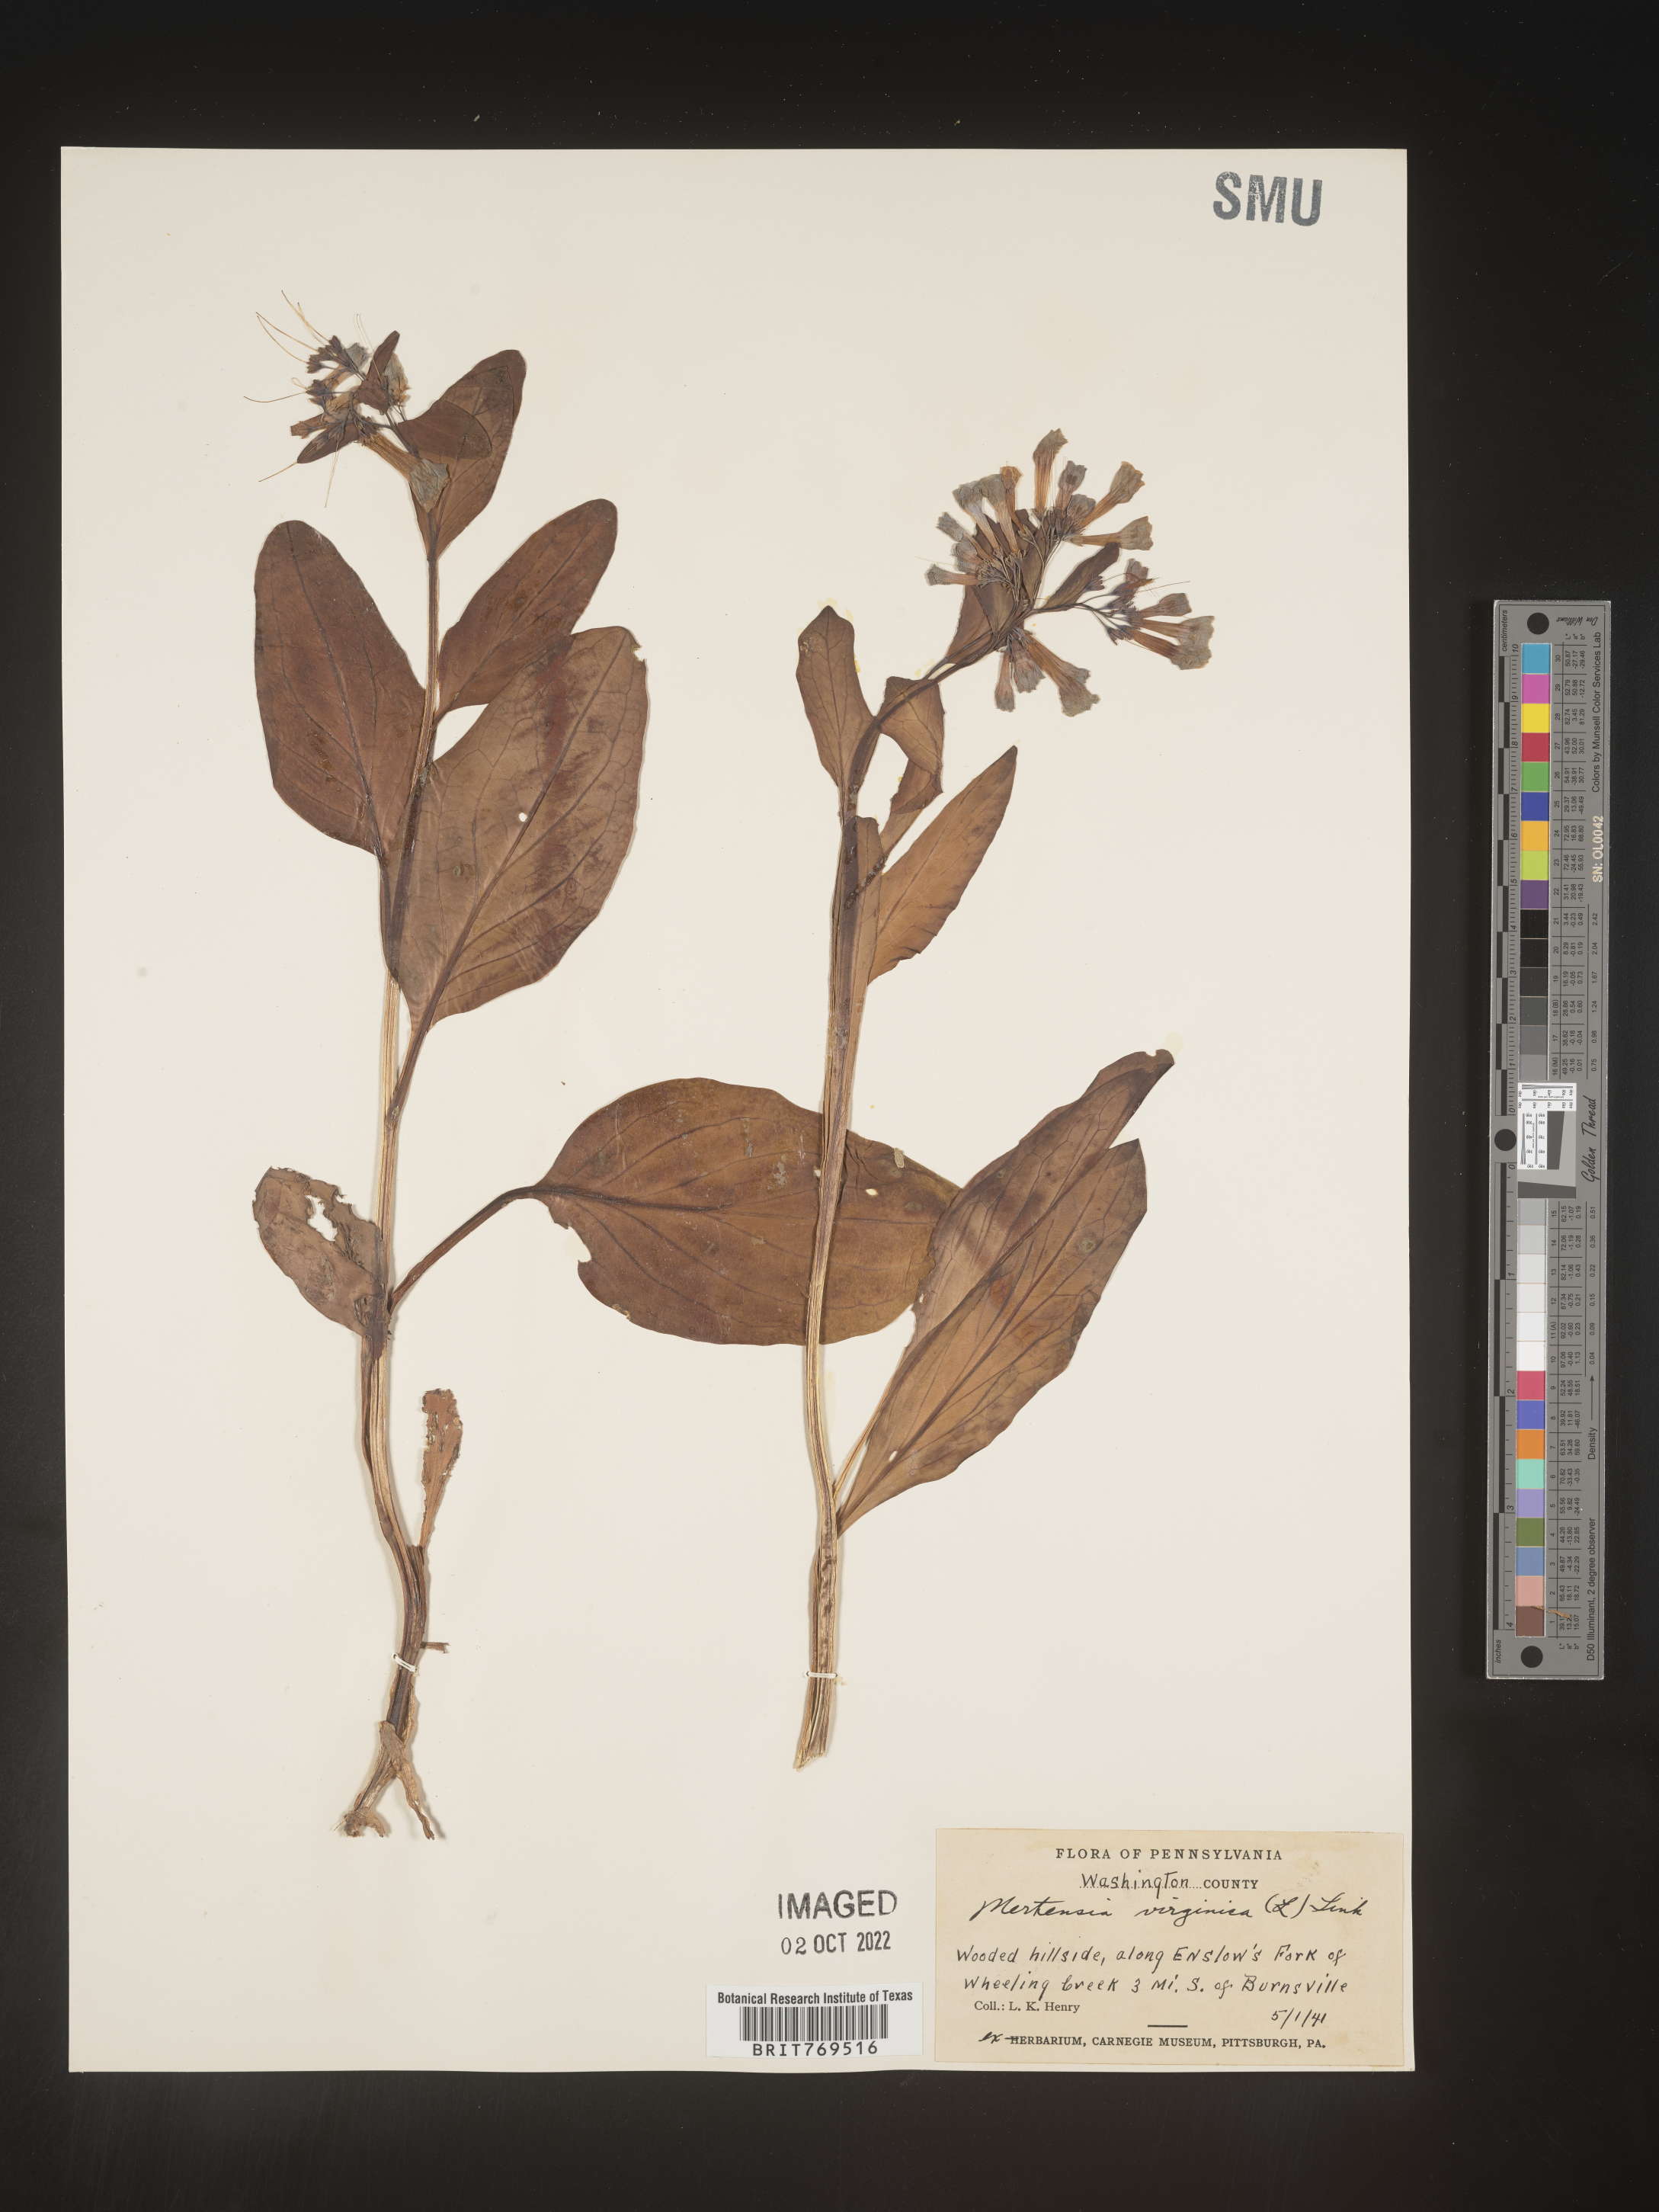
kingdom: Plantae
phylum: Tracheophyta
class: Magnoliopsida
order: Boraginales
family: Boraginaceae
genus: Mertensia
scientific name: Mertensia virginica
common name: Virginia bluebells
